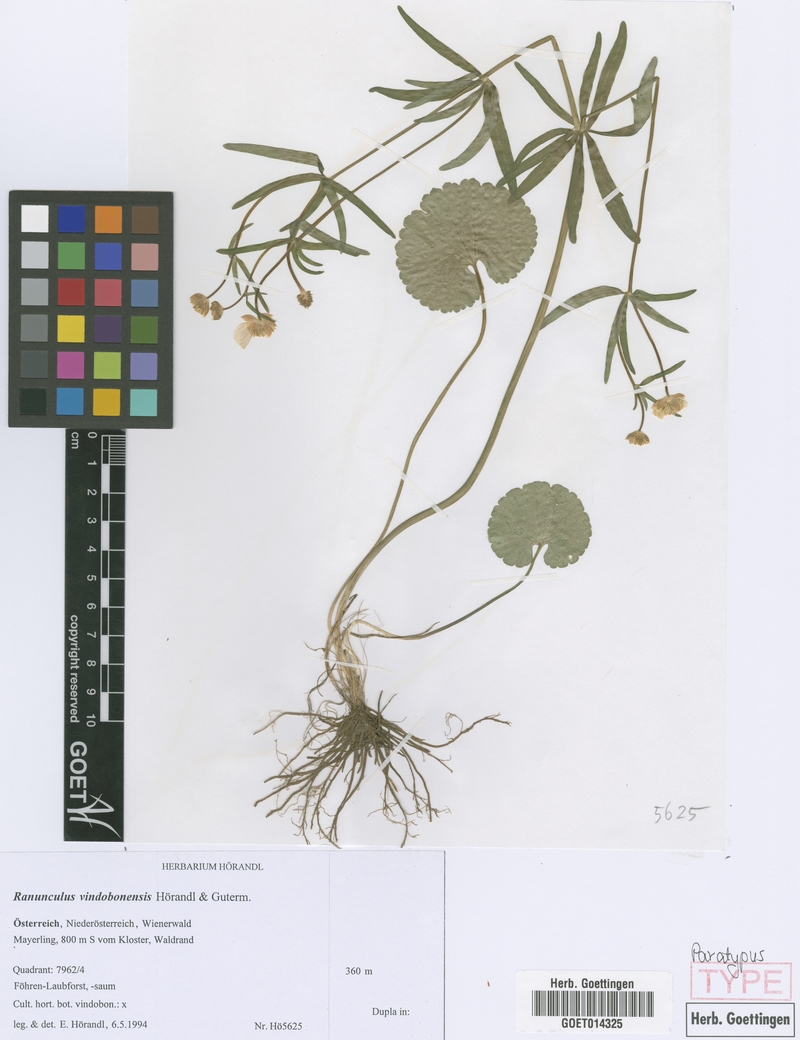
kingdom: Plantae
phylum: Tracheophyta
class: Magnoliopsida
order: Ranunculales
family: Ranunculaceae
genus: Ranunculus
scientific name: Ranunculus vindobonensis
